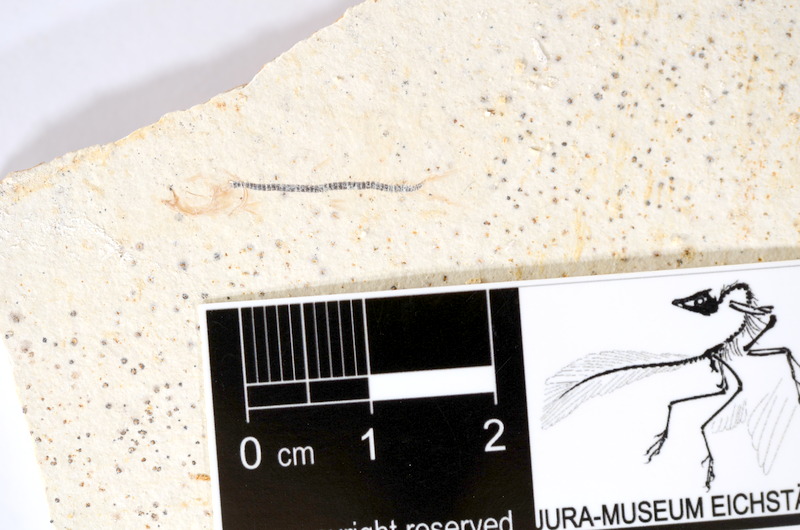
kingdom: Animalia
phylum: Chordata
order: Salmoniformes
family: Orthogonikleithridae
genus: Orthogonikleithrus
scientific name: Orthogonikleithrus hoelli
